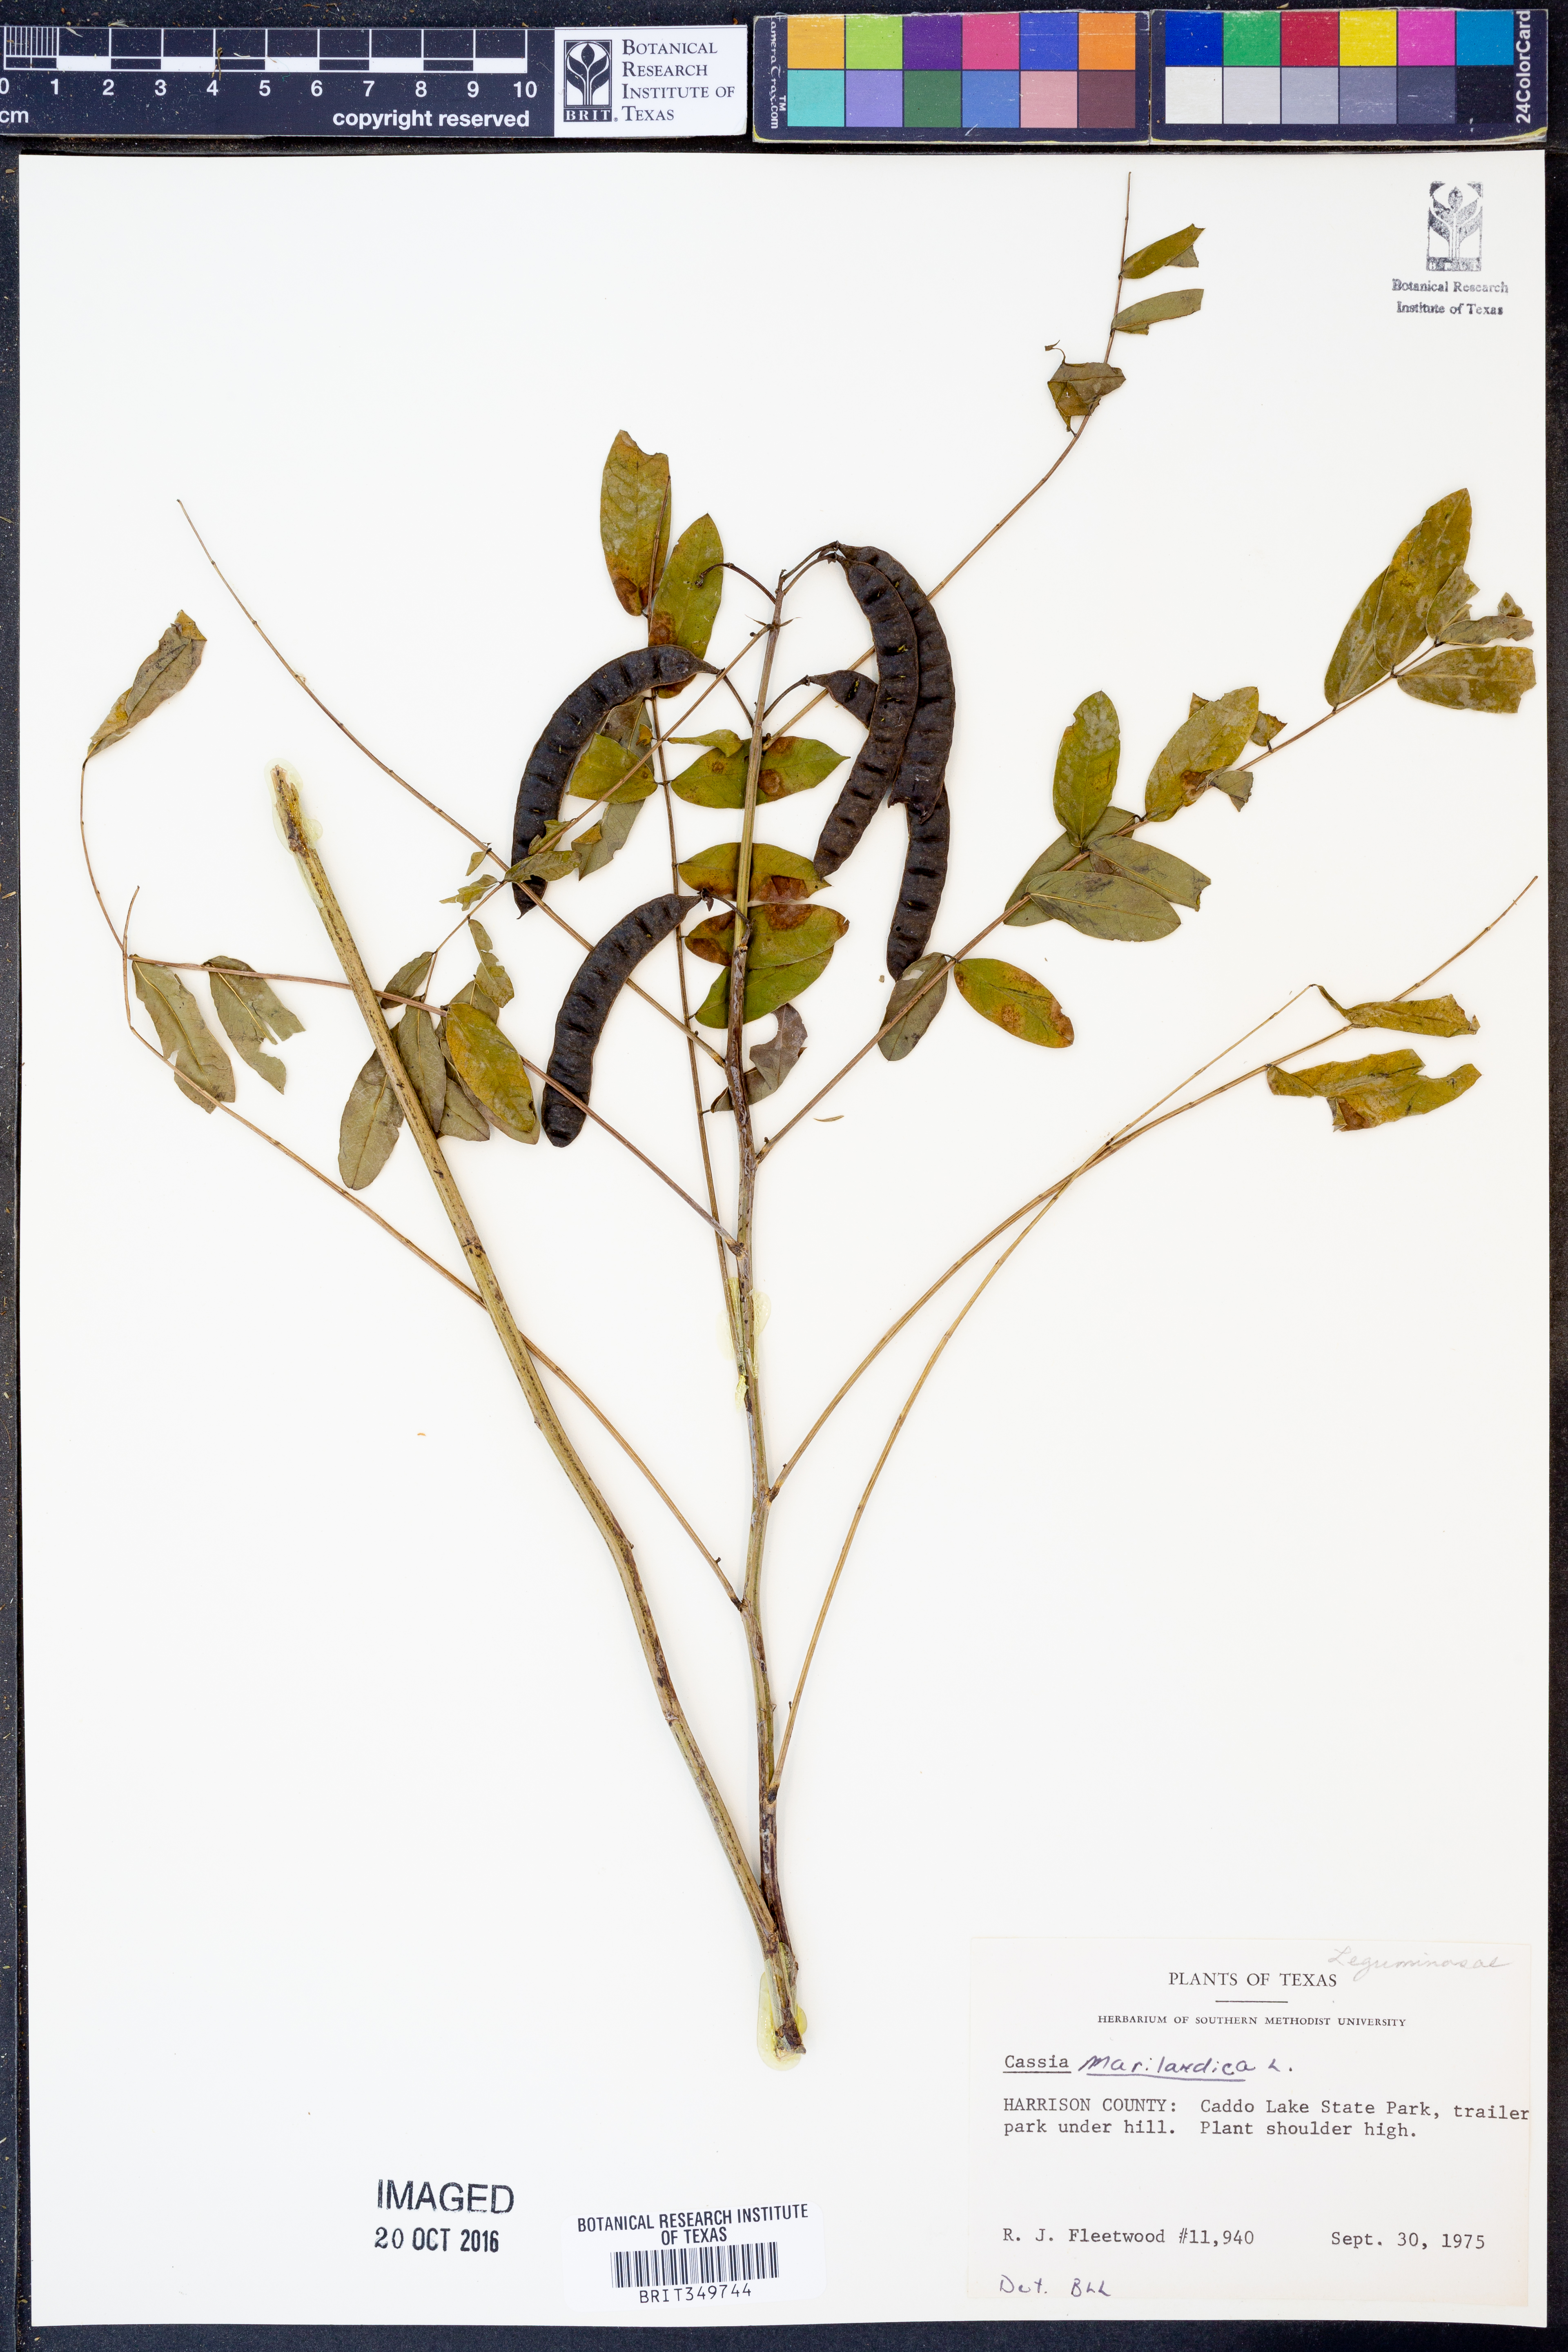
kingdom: Plantae
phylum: Tracheophyta
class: Magnoliopsida
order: Fabales
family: Fabaceae
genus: Senna
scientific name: Senna marilandica
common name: American senna
